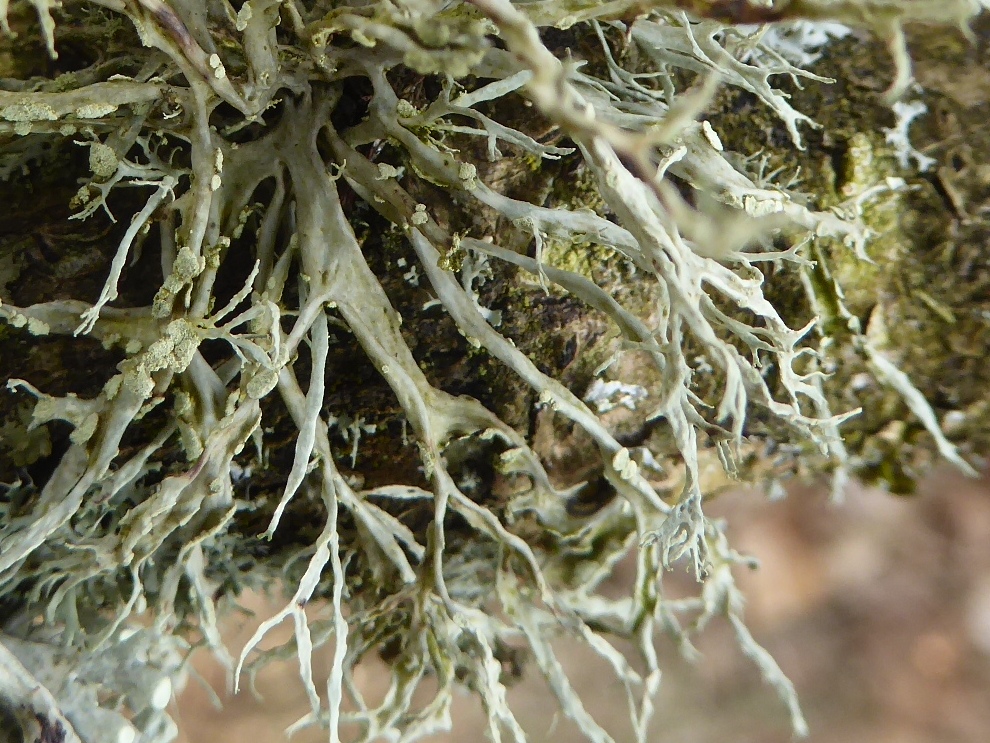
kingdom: Fungi
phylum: Ascomycota
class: Lecanoromycetes
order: Lecanorales
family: Ramalinaceae
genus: Ramalina
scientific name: Ramalina farinacea
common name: melet grenlav
